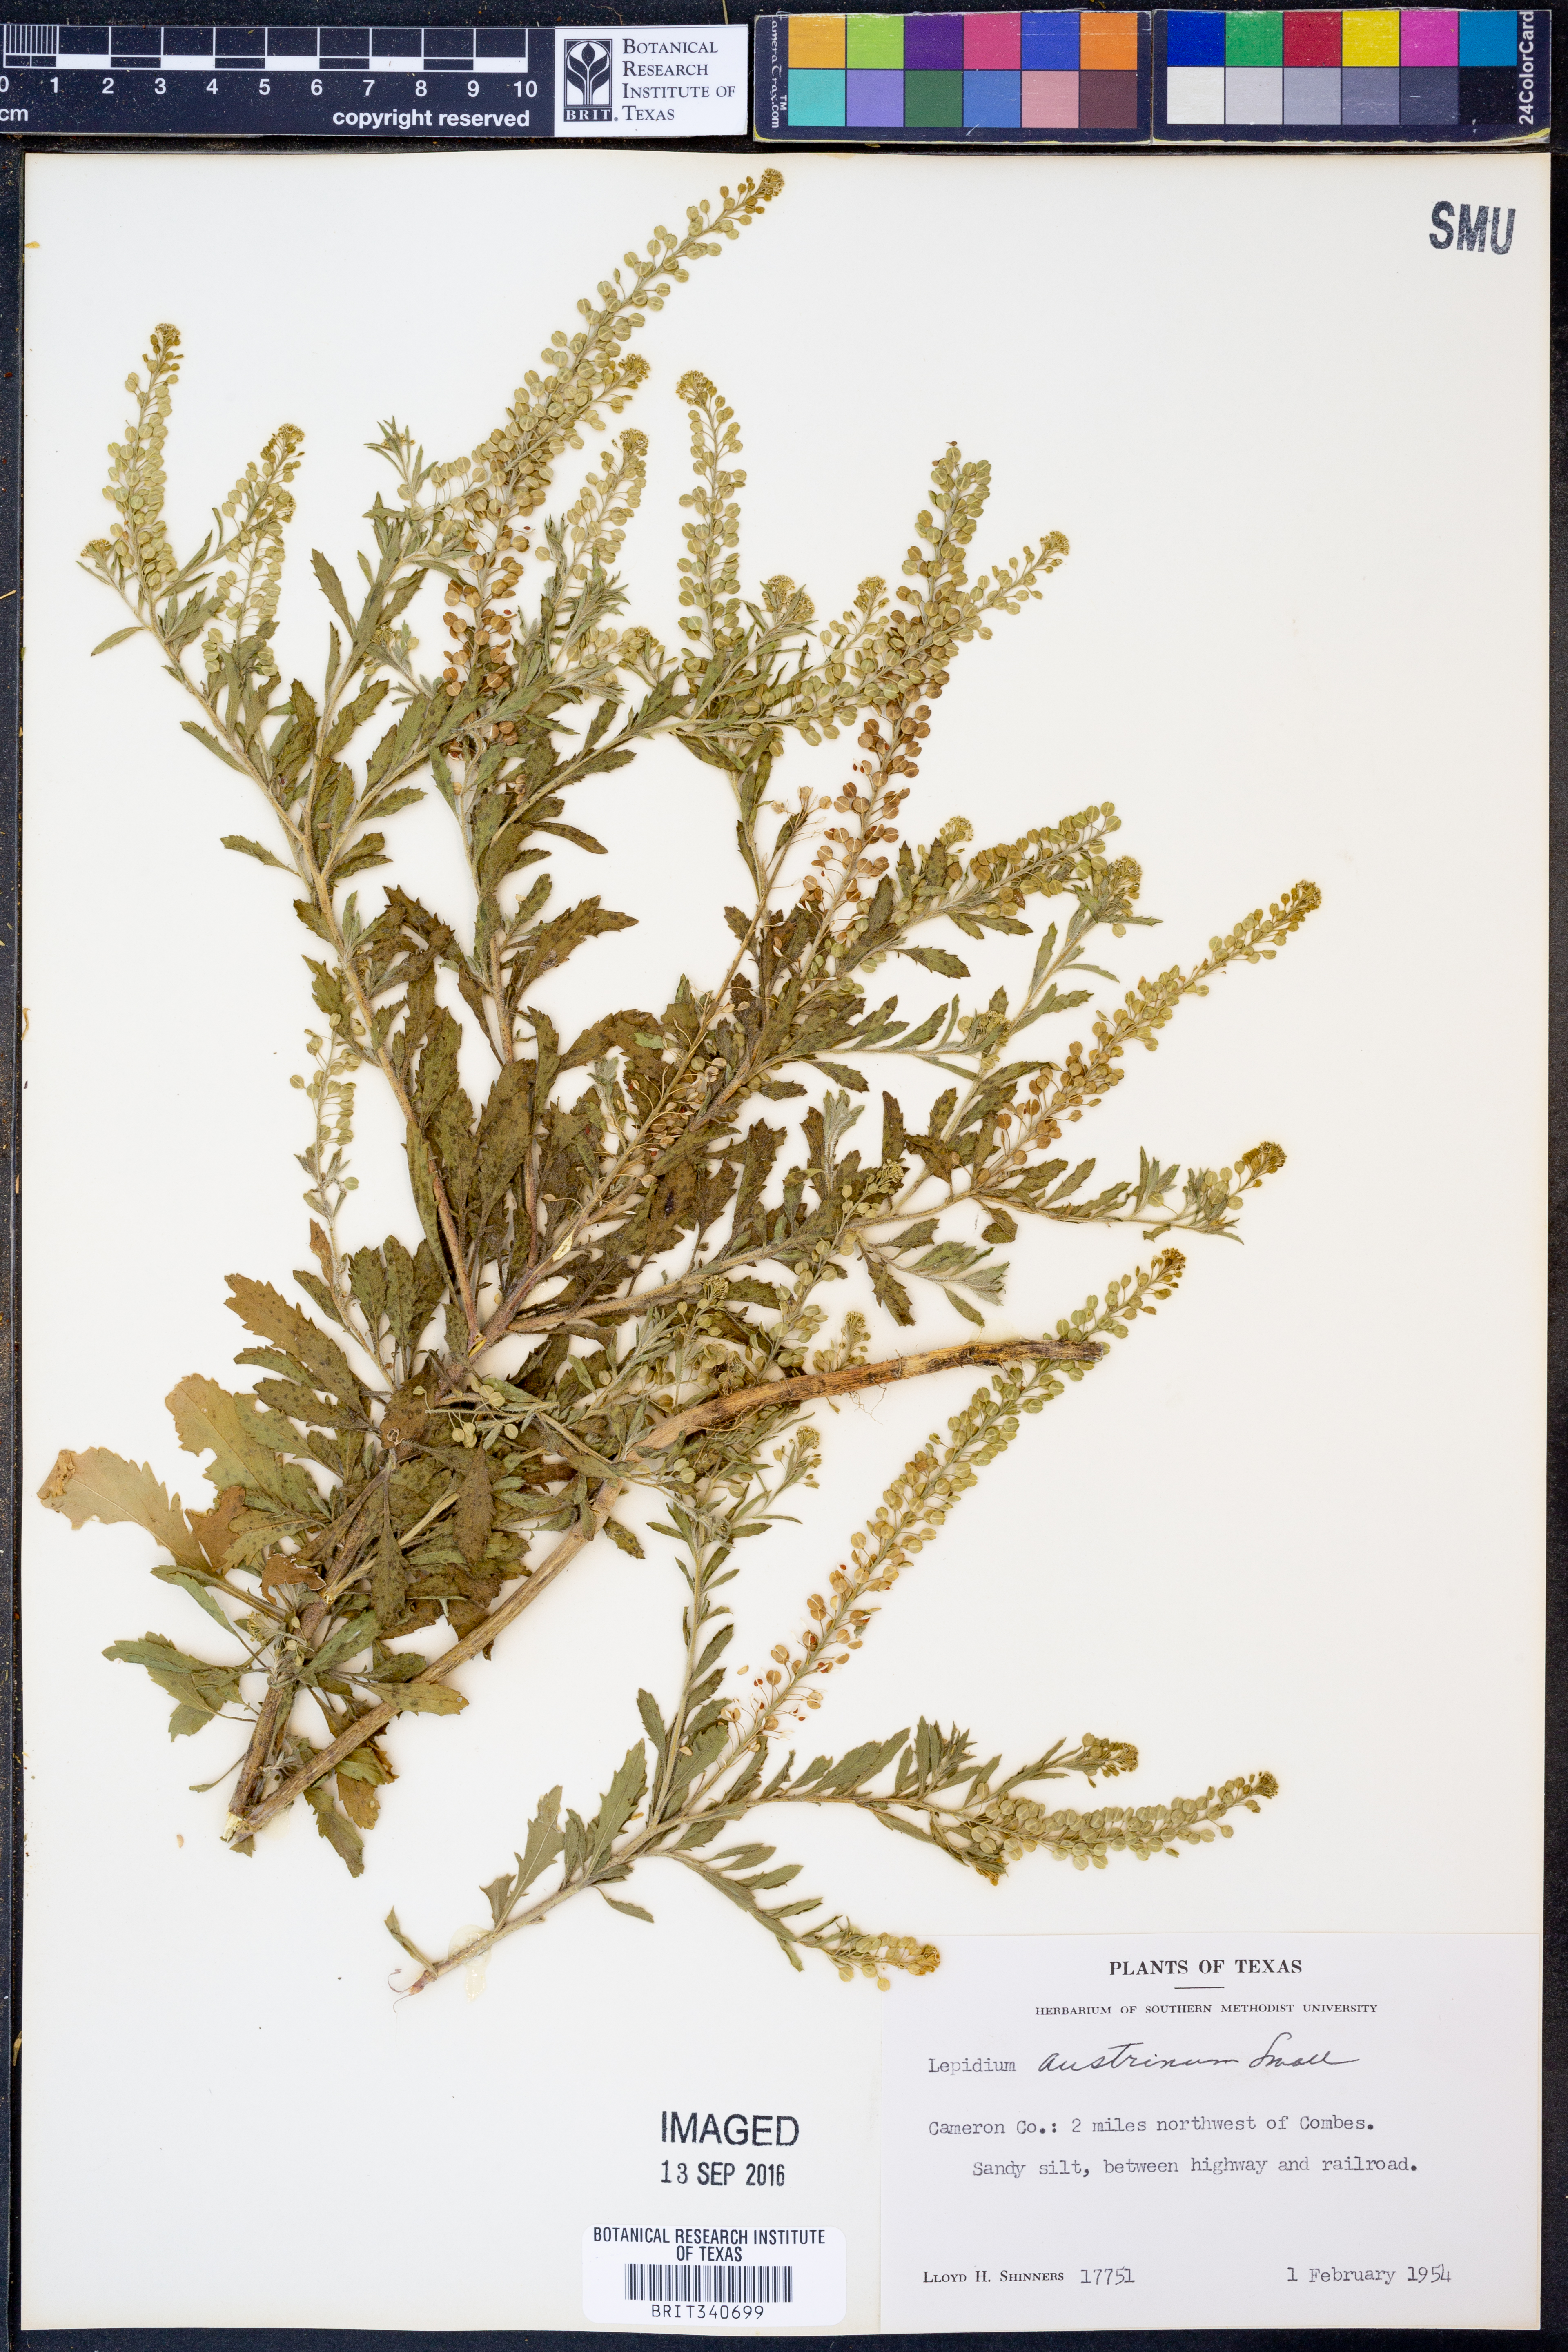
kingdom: Plantae
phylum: Tracheophyta
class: Magnoliopsida
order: Brassicales
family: Brassicaceae
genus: Lepidium
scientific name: Lepidium austrinum
